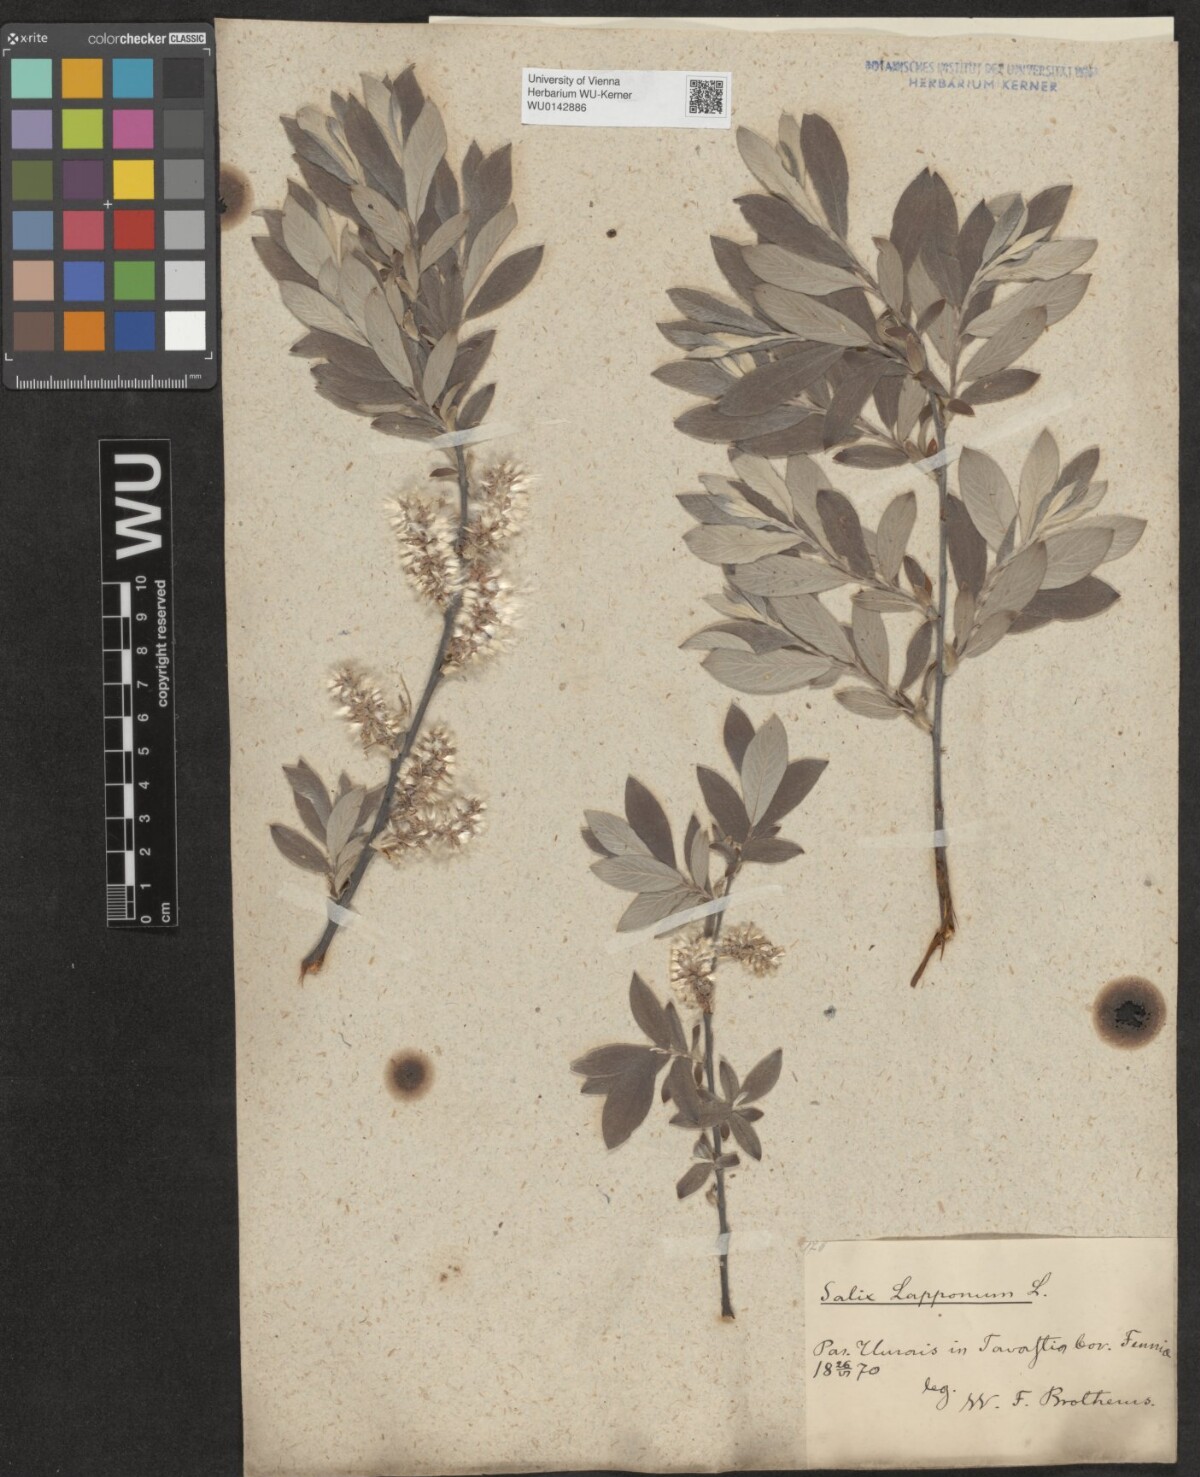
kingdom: Plantae
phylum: Tracheophyta
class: Magnoliopsida
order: Malpighiales
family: Salicaceae
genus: Salix
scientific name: Salix lapponum
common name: Downy willow
